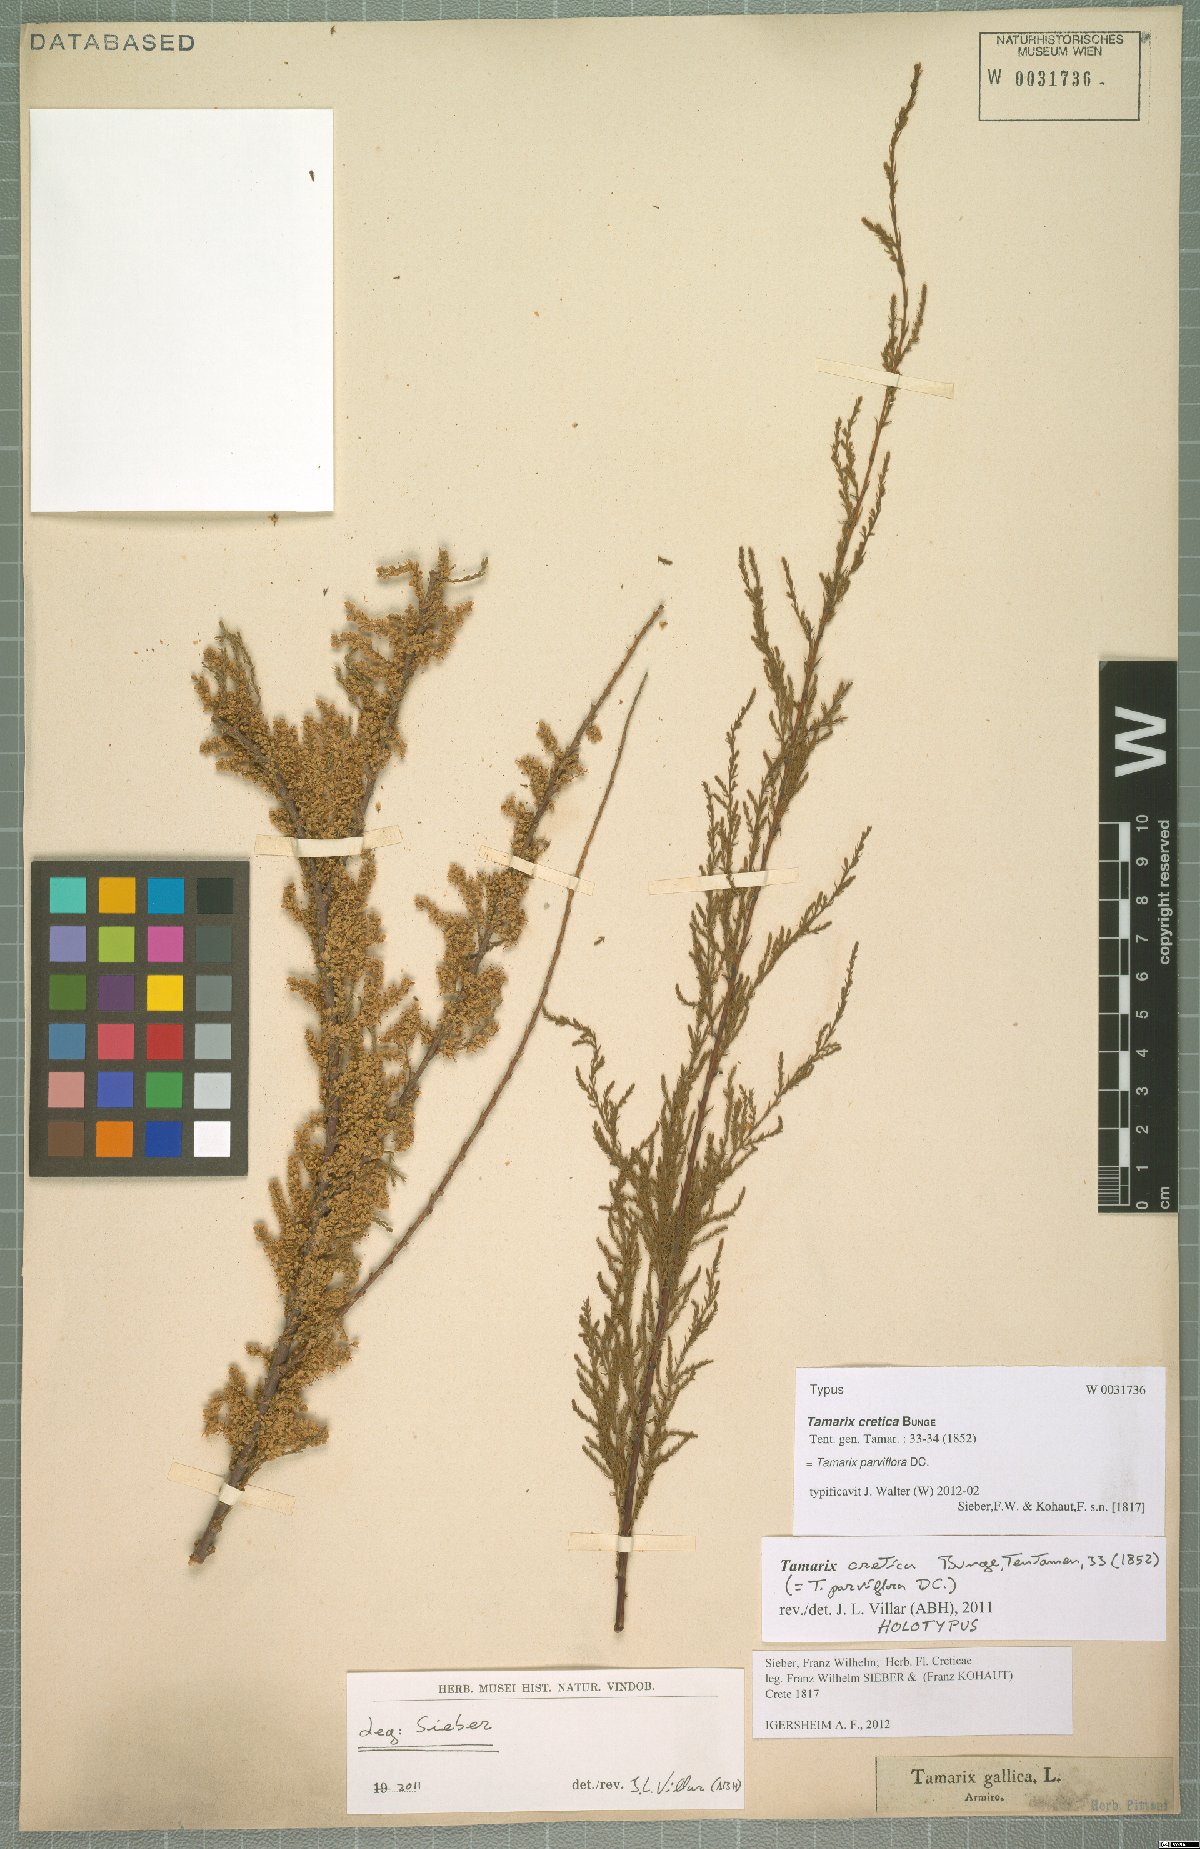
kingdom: Plantae
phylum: Tracheophyta
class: Magnoliopsida
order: Caryophyllales
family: Tamaricaceae
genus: Tamarix
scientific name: Tamarix parviflora
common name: Smallflower tamarisk
